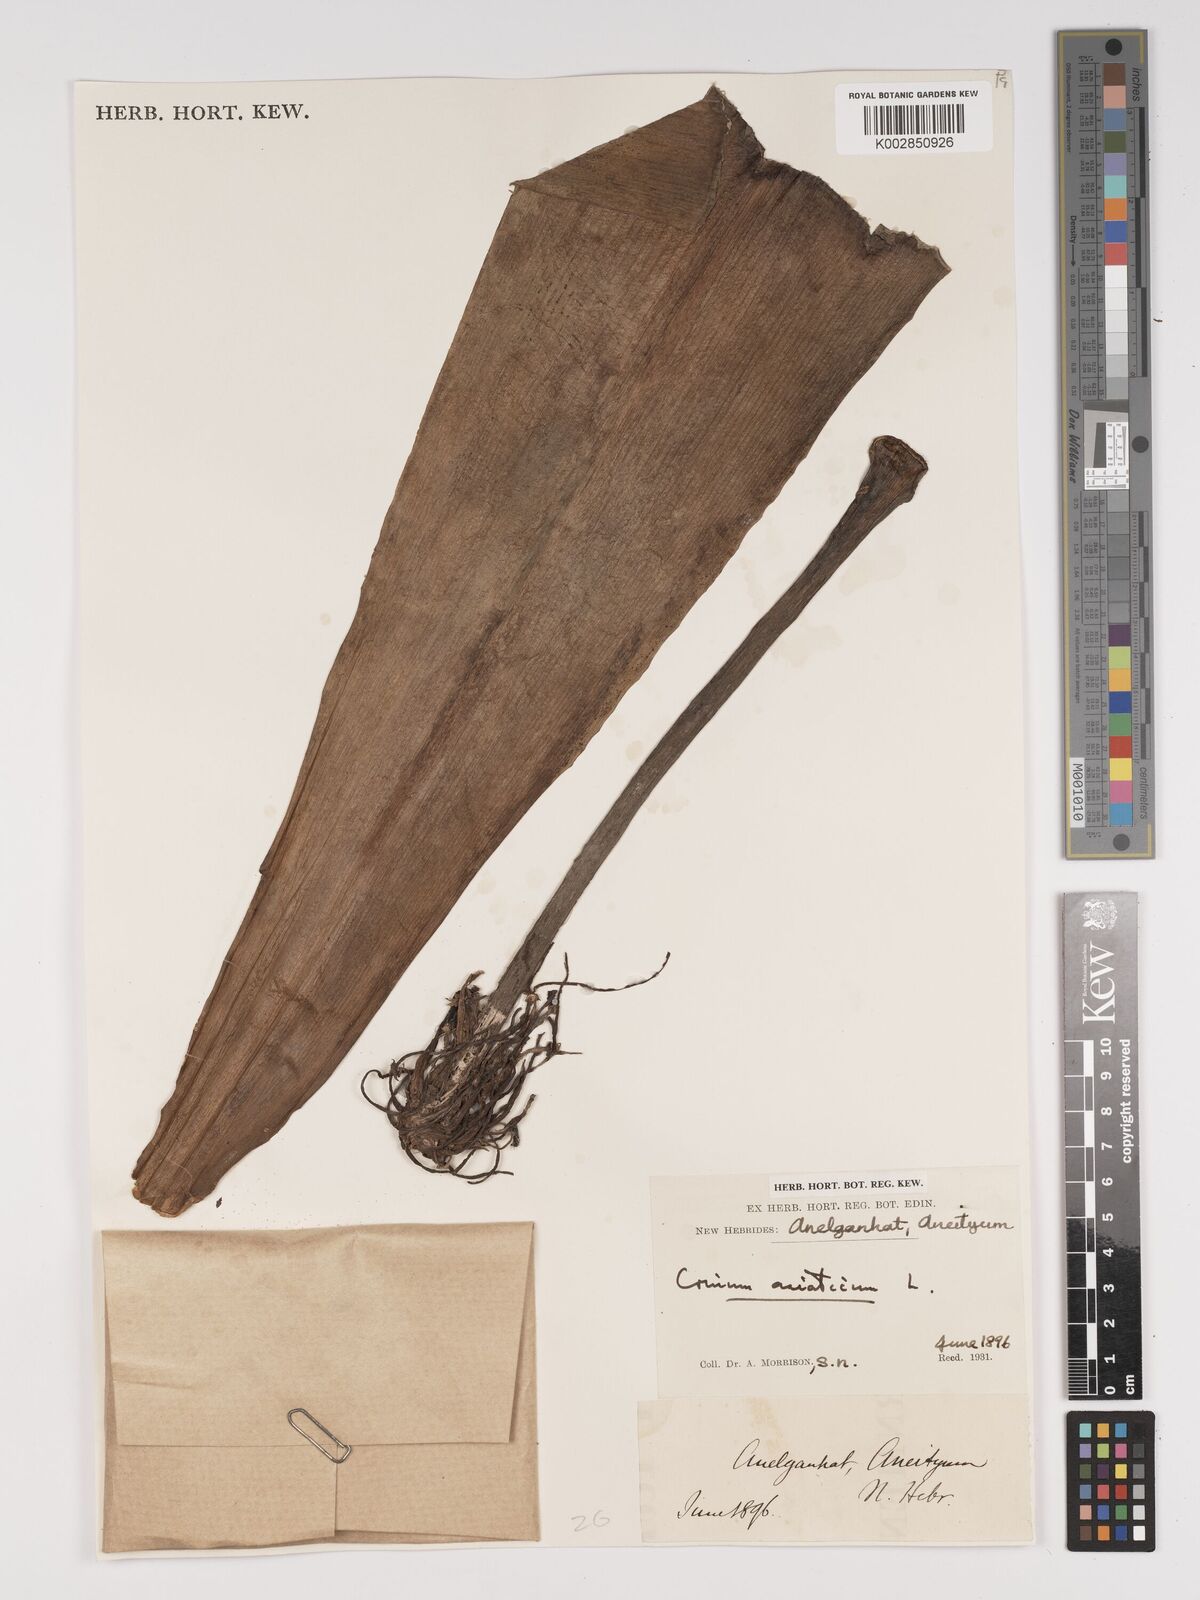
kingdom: Plantae
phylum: Tracheophyta
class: Liliopsida
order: Asparagales
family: Amaryllidaceae
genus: Crinum
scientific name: Crinum asiaticum
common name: Poisonbulb
